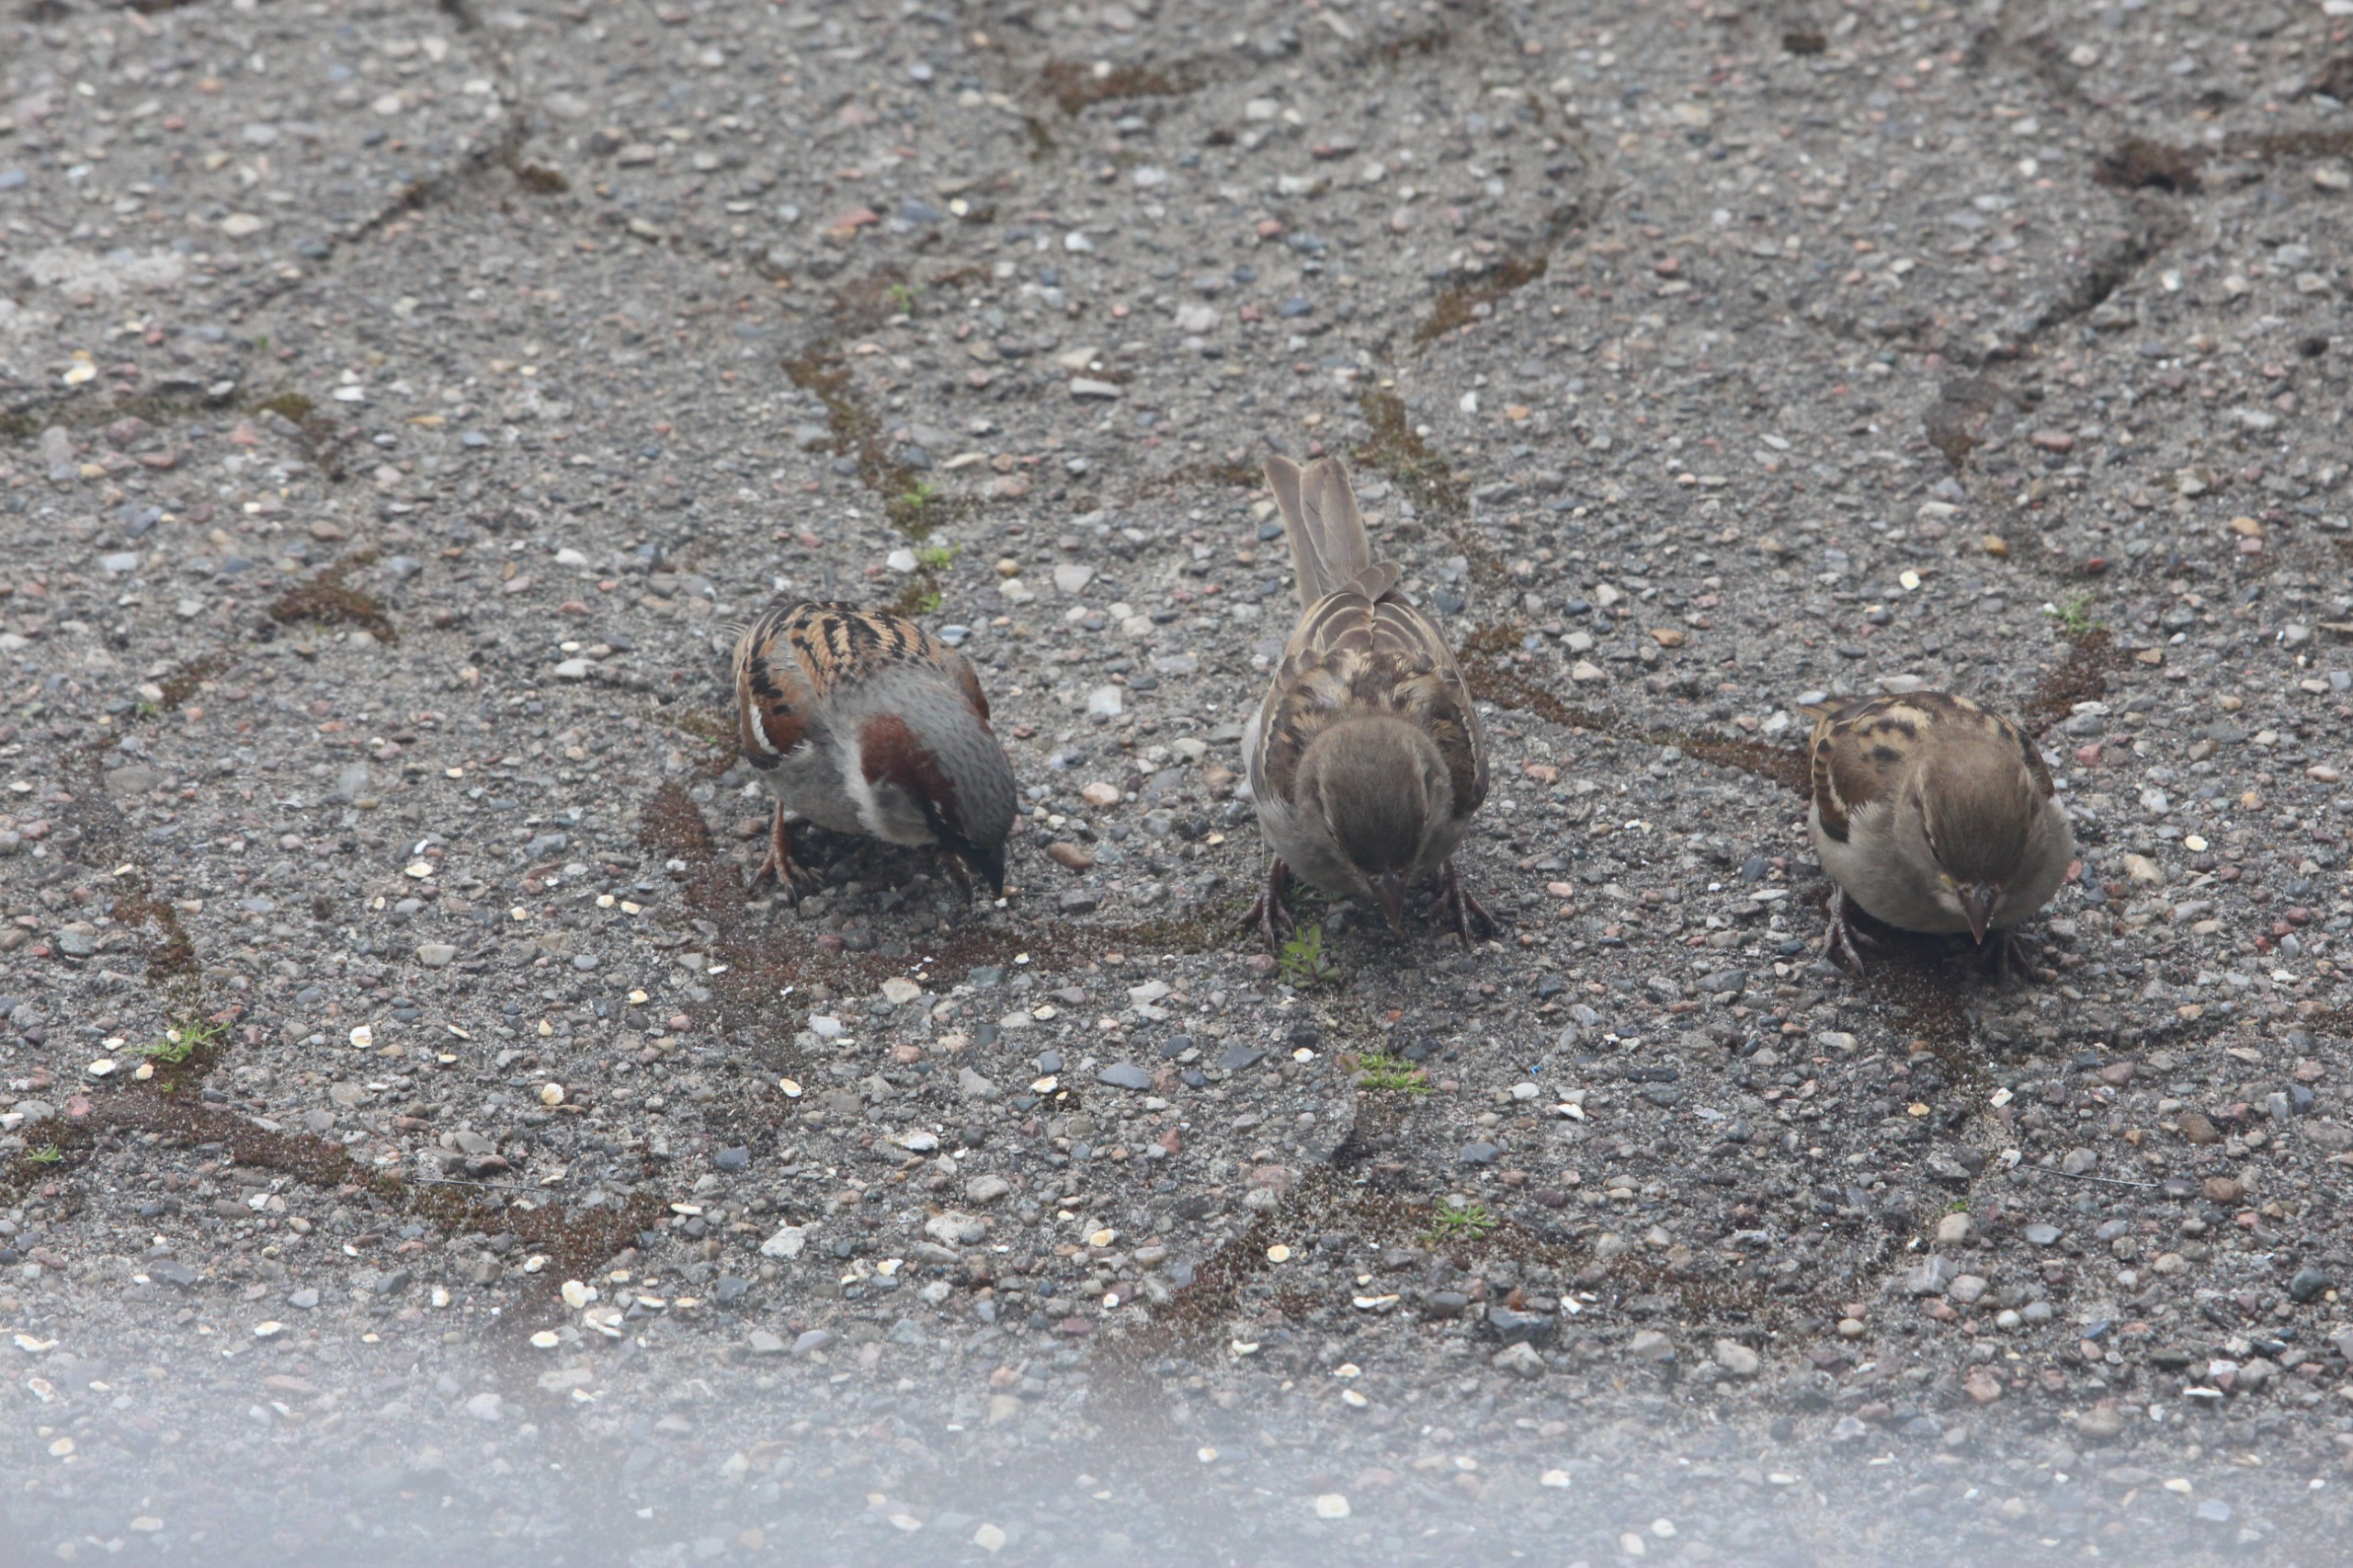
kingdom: Animalia
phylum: Chordata
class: Aves
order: Passeriformes
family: Passeridae
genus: Passer
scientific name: Passer domesticus
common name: Gråspurv
